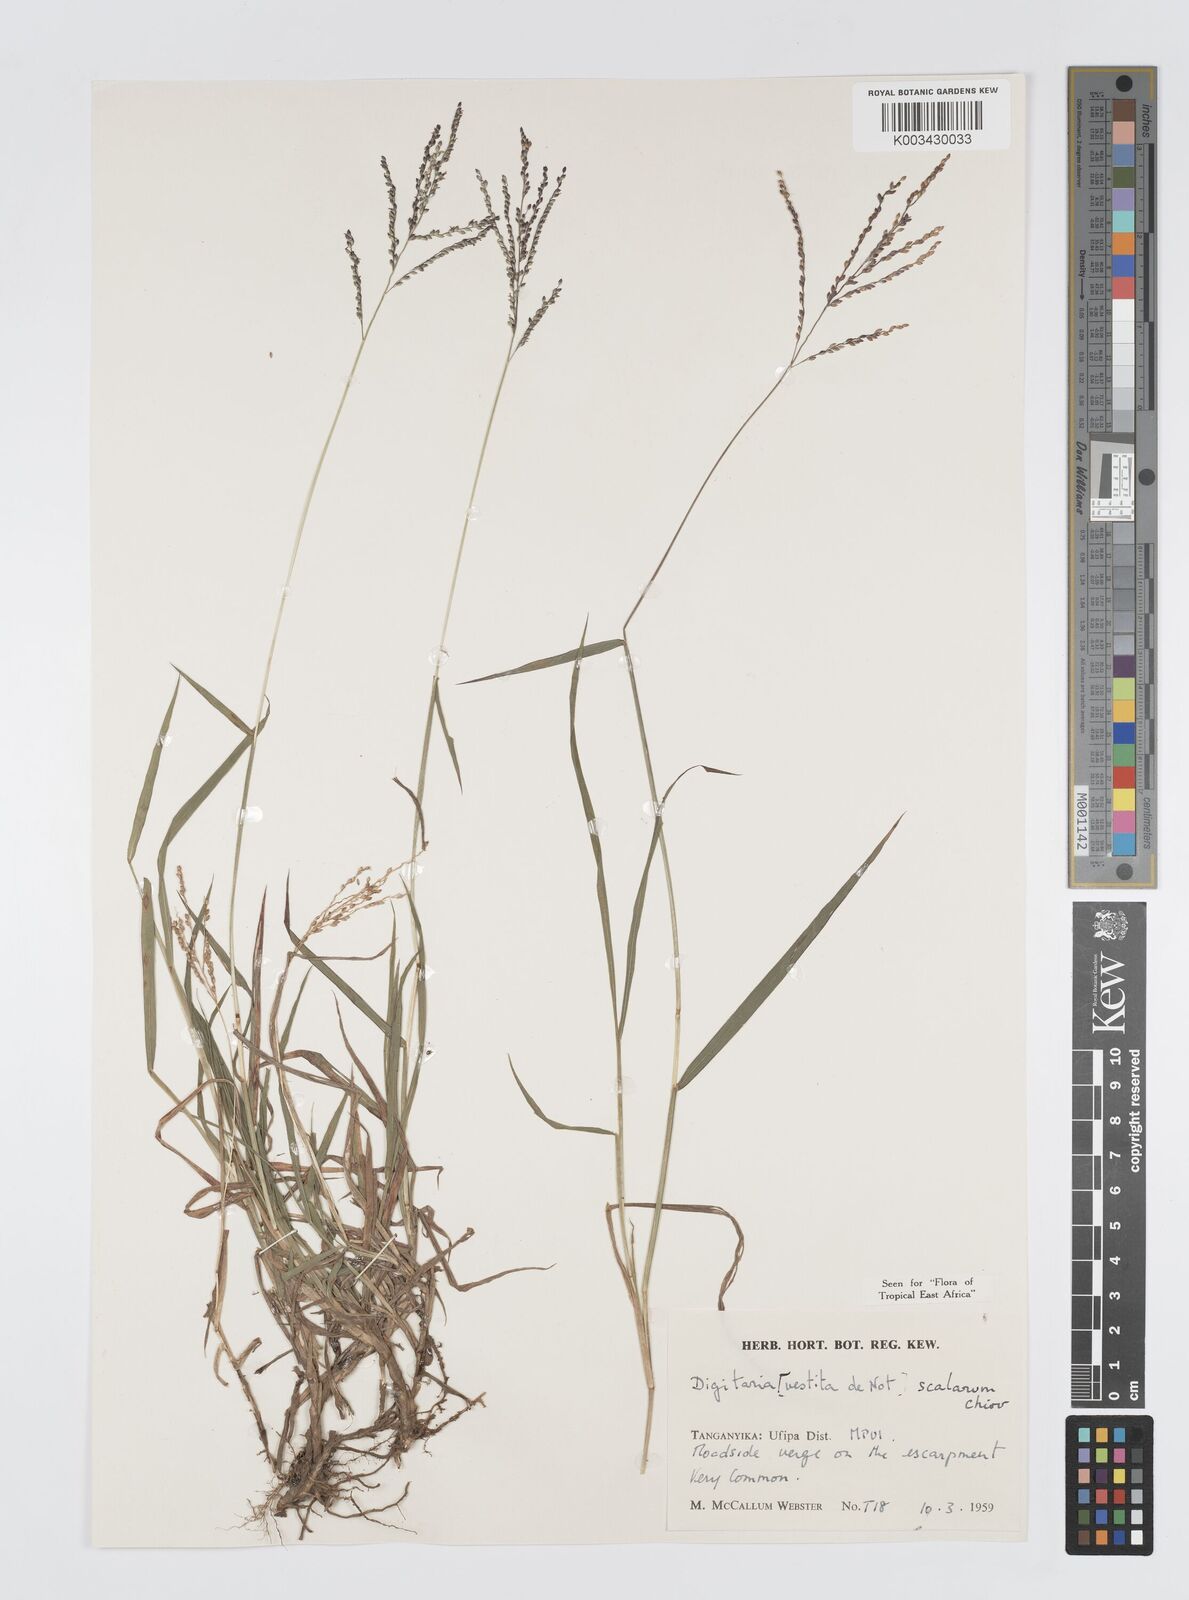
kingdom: Plantae
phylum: Tracheophyta
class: Liliopsida
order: Poales
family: Poaceae
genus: Digitaria
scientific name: Digitaria abyssinica
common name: African couchgrass
